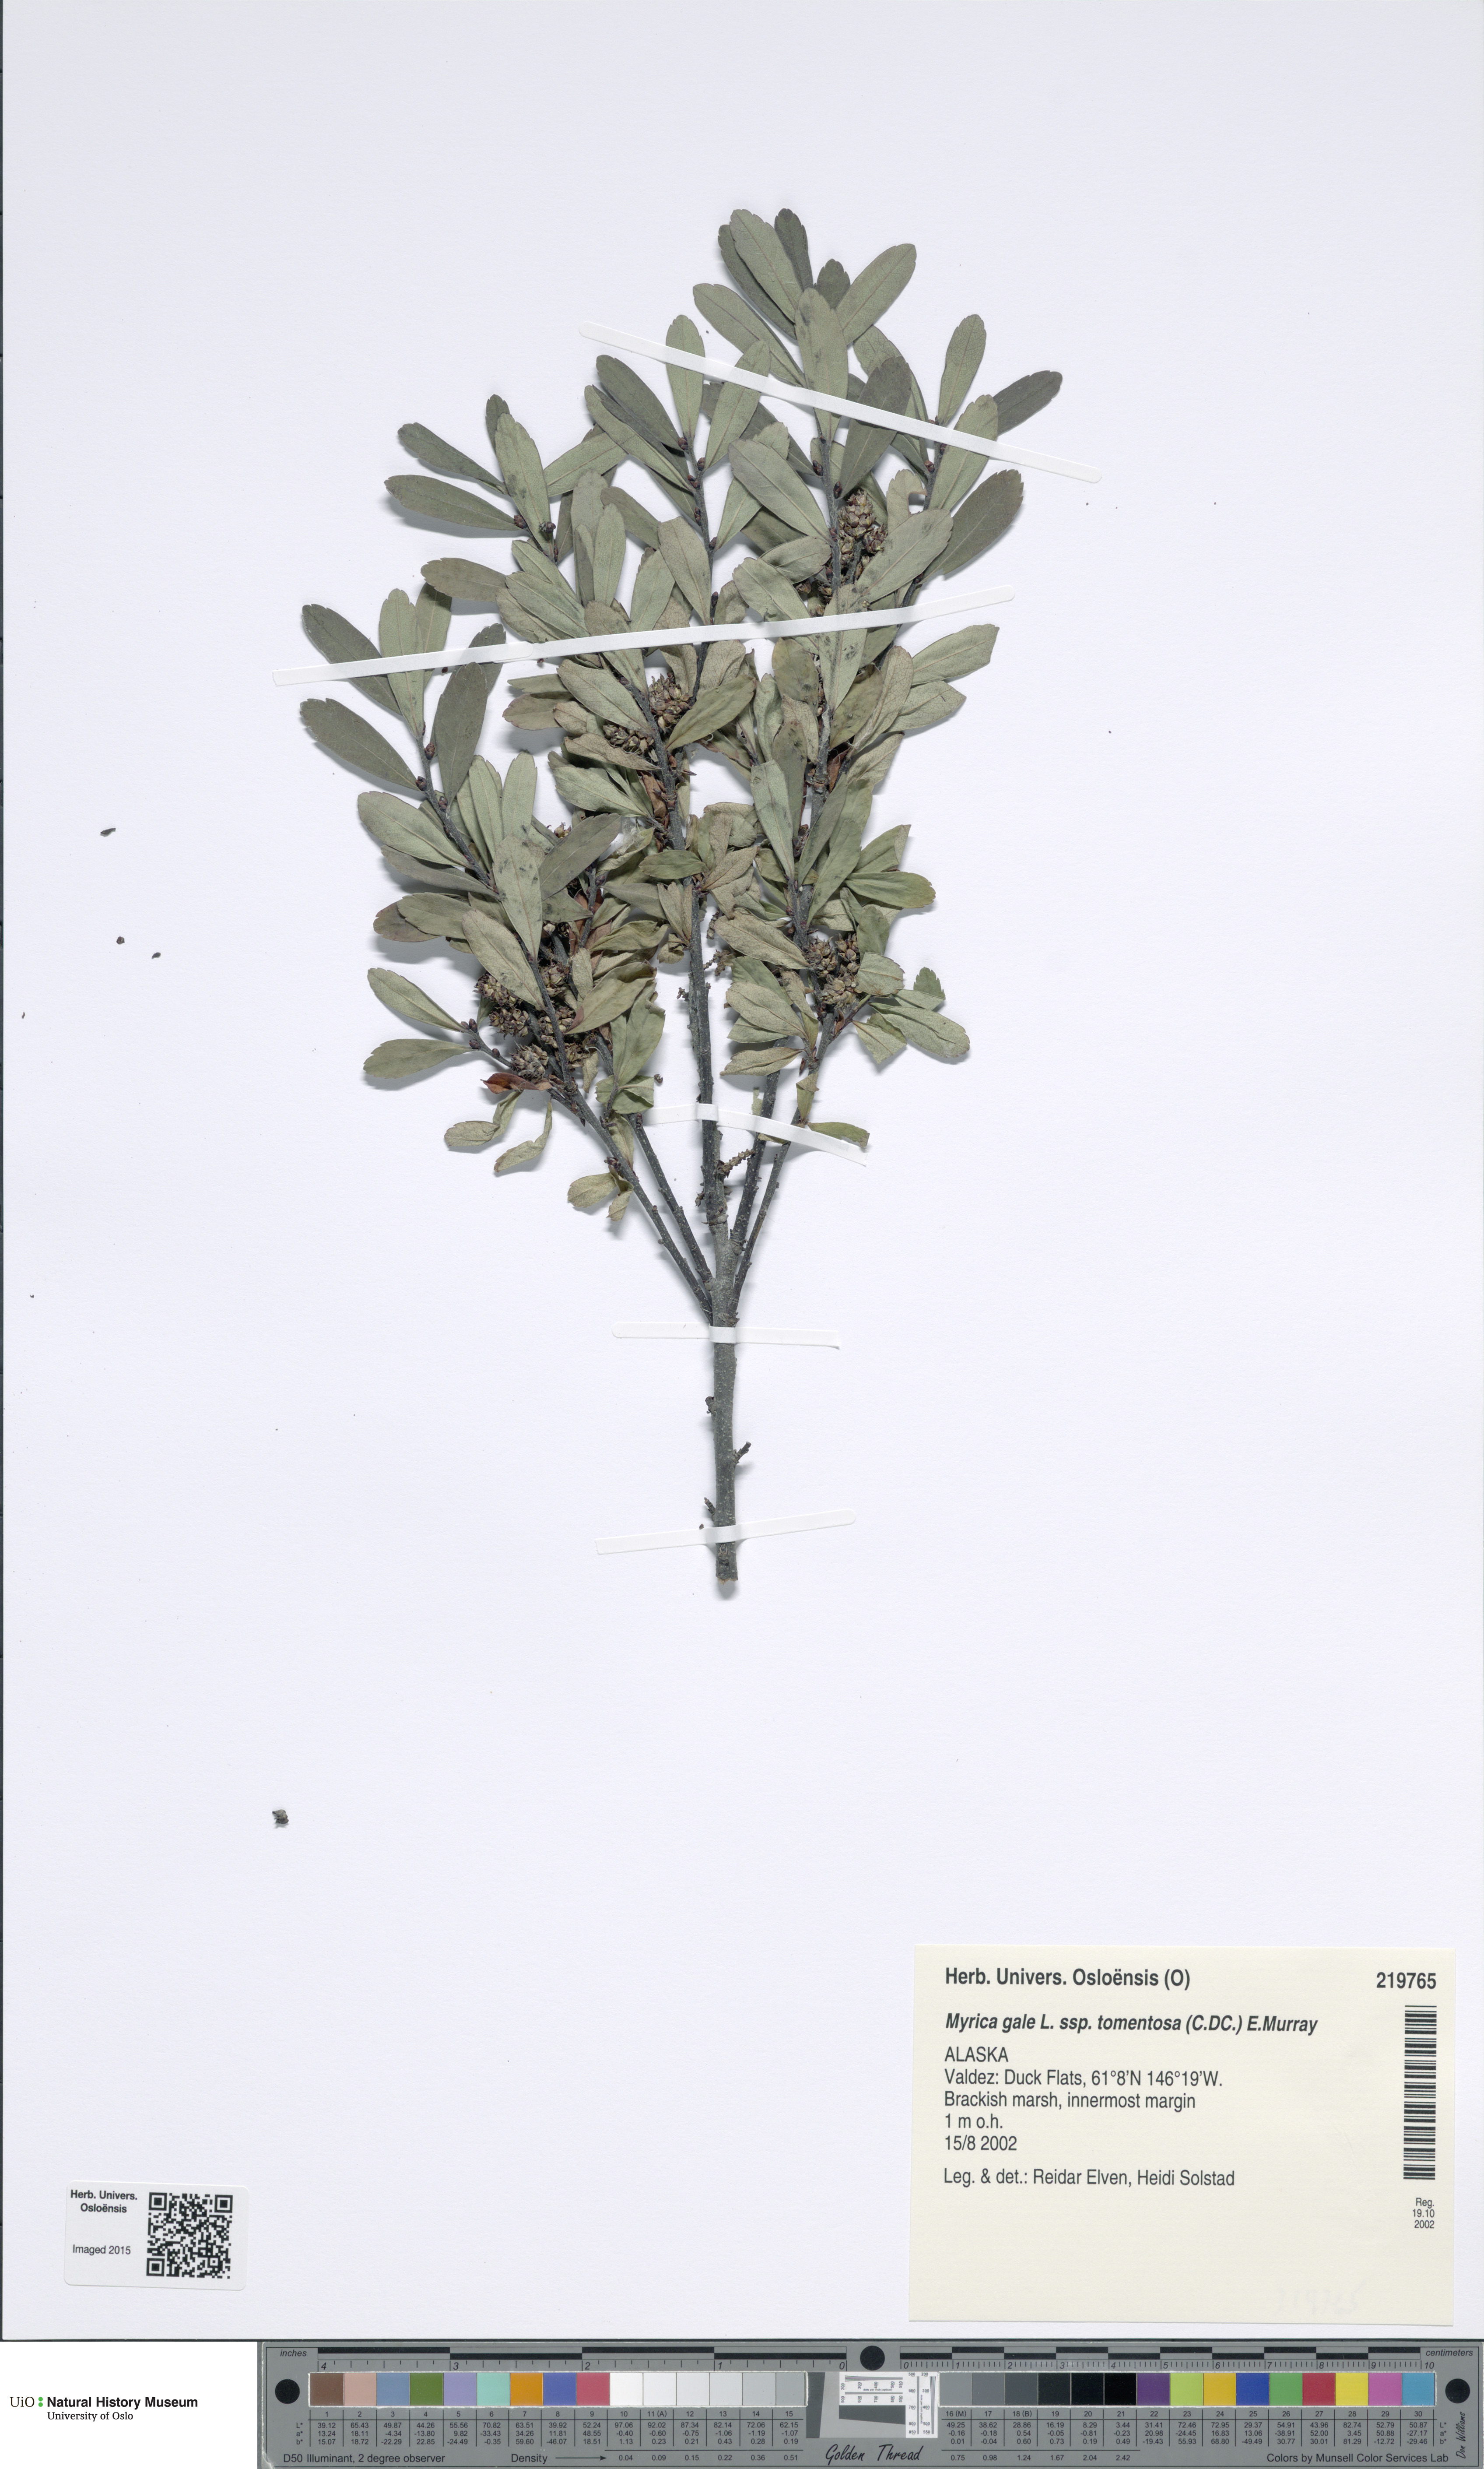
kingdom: Plantae
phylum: Tracheophyta
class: Magnoliopsida
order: Fagales
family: Myricaceae
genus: Myrica
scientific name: Myrica gale
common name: Sweet gale
